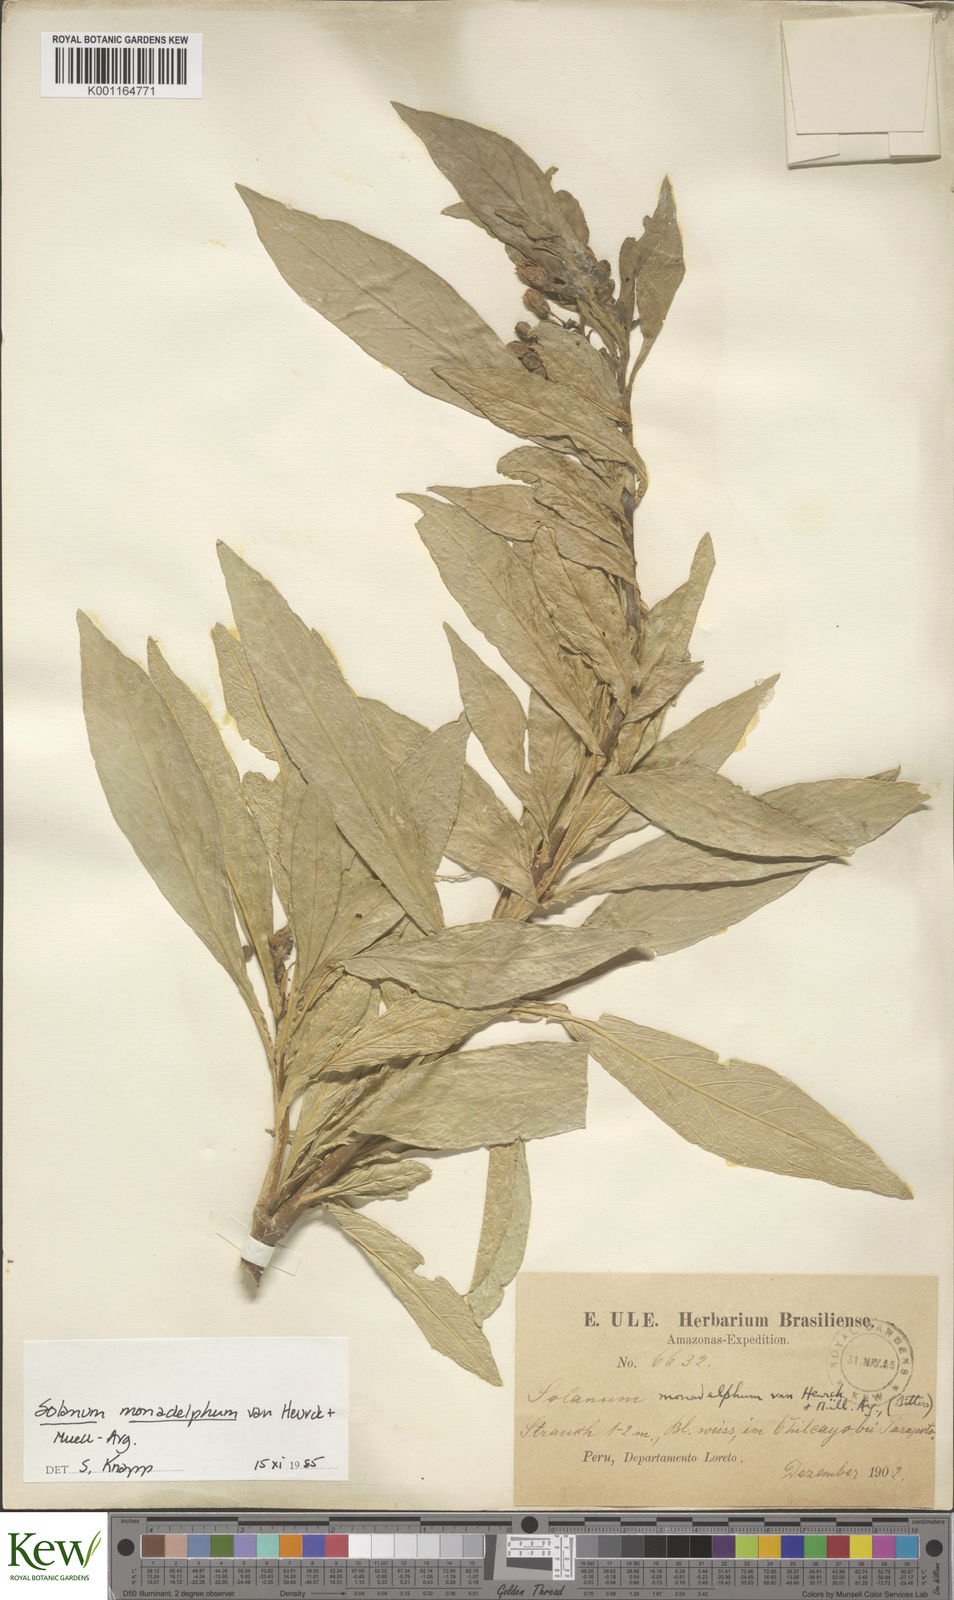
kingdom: Plantae
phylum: Tracheophyta
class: Magnoliopsida
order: Solanales
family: Solanaceae
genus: Solanum
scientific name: Solanum monadelphum
